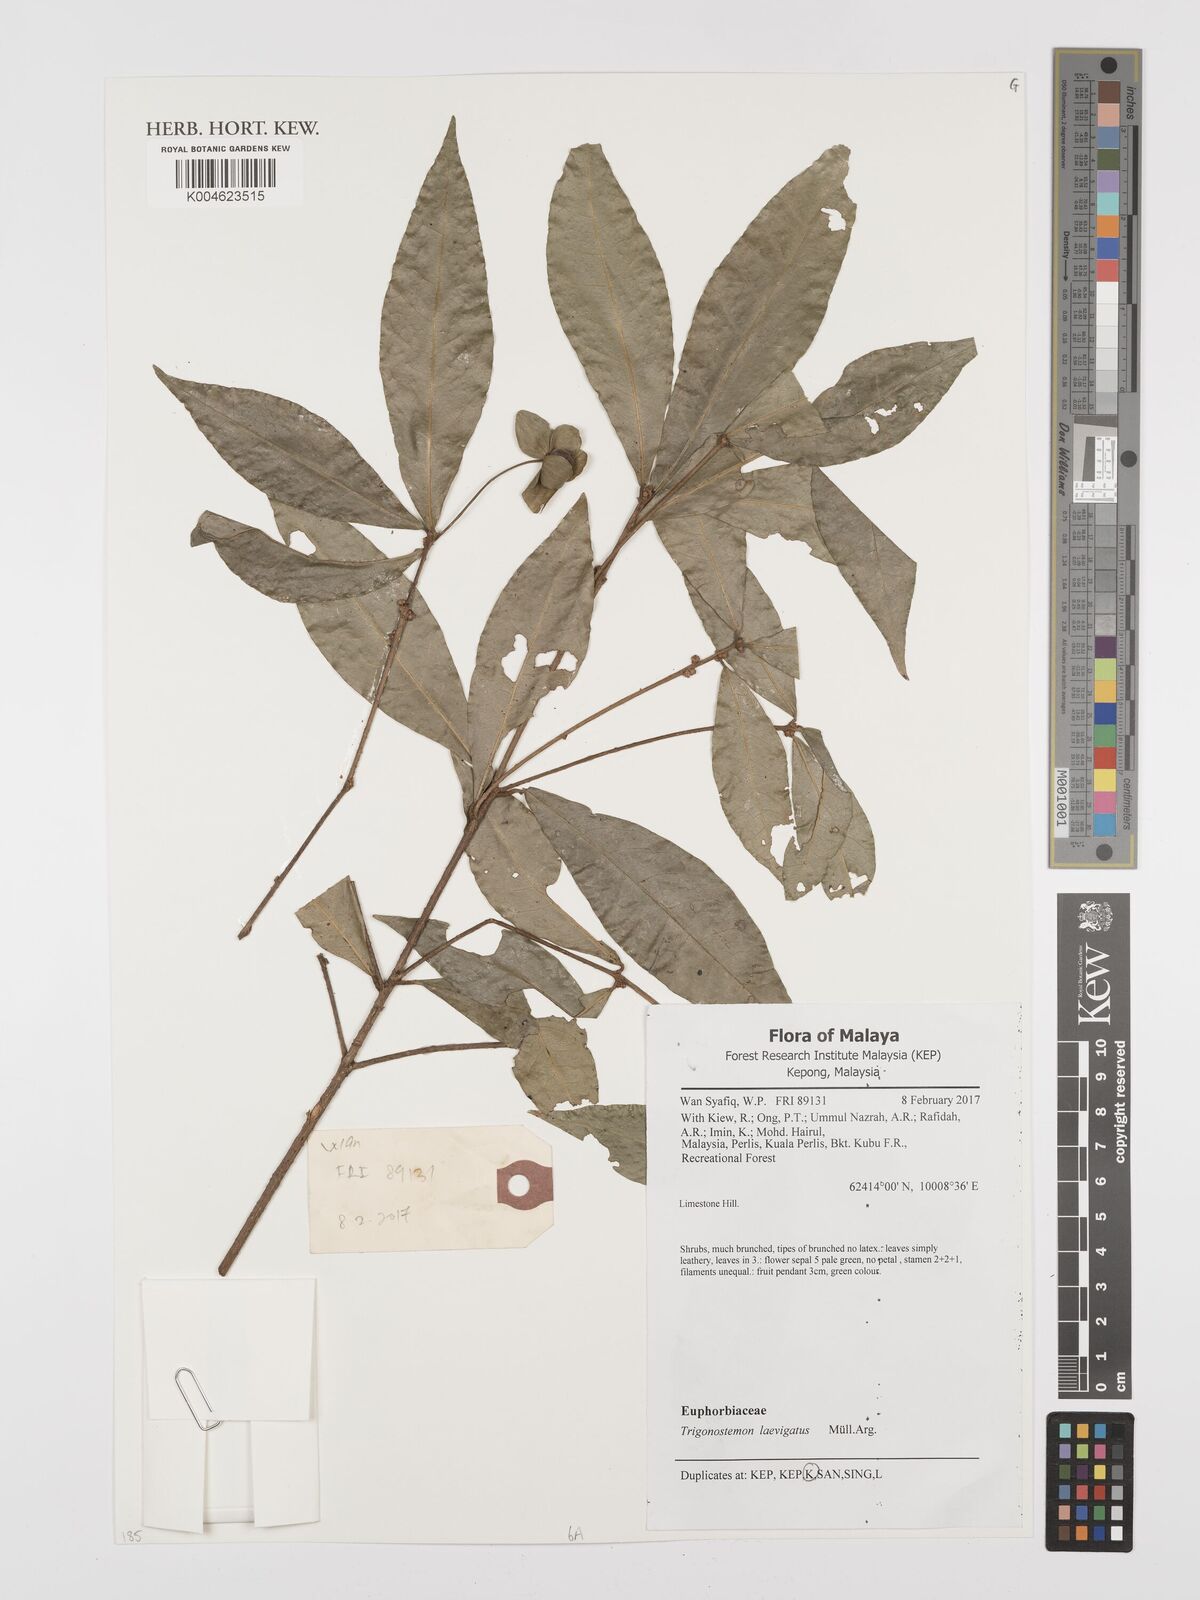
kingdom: Plantae
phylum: Tracheophyta
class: Magnoliopsida
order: Malpighiales
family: Euphorbiaceae
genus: Trigonostemon
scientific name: Trigonostemon laevigatus
